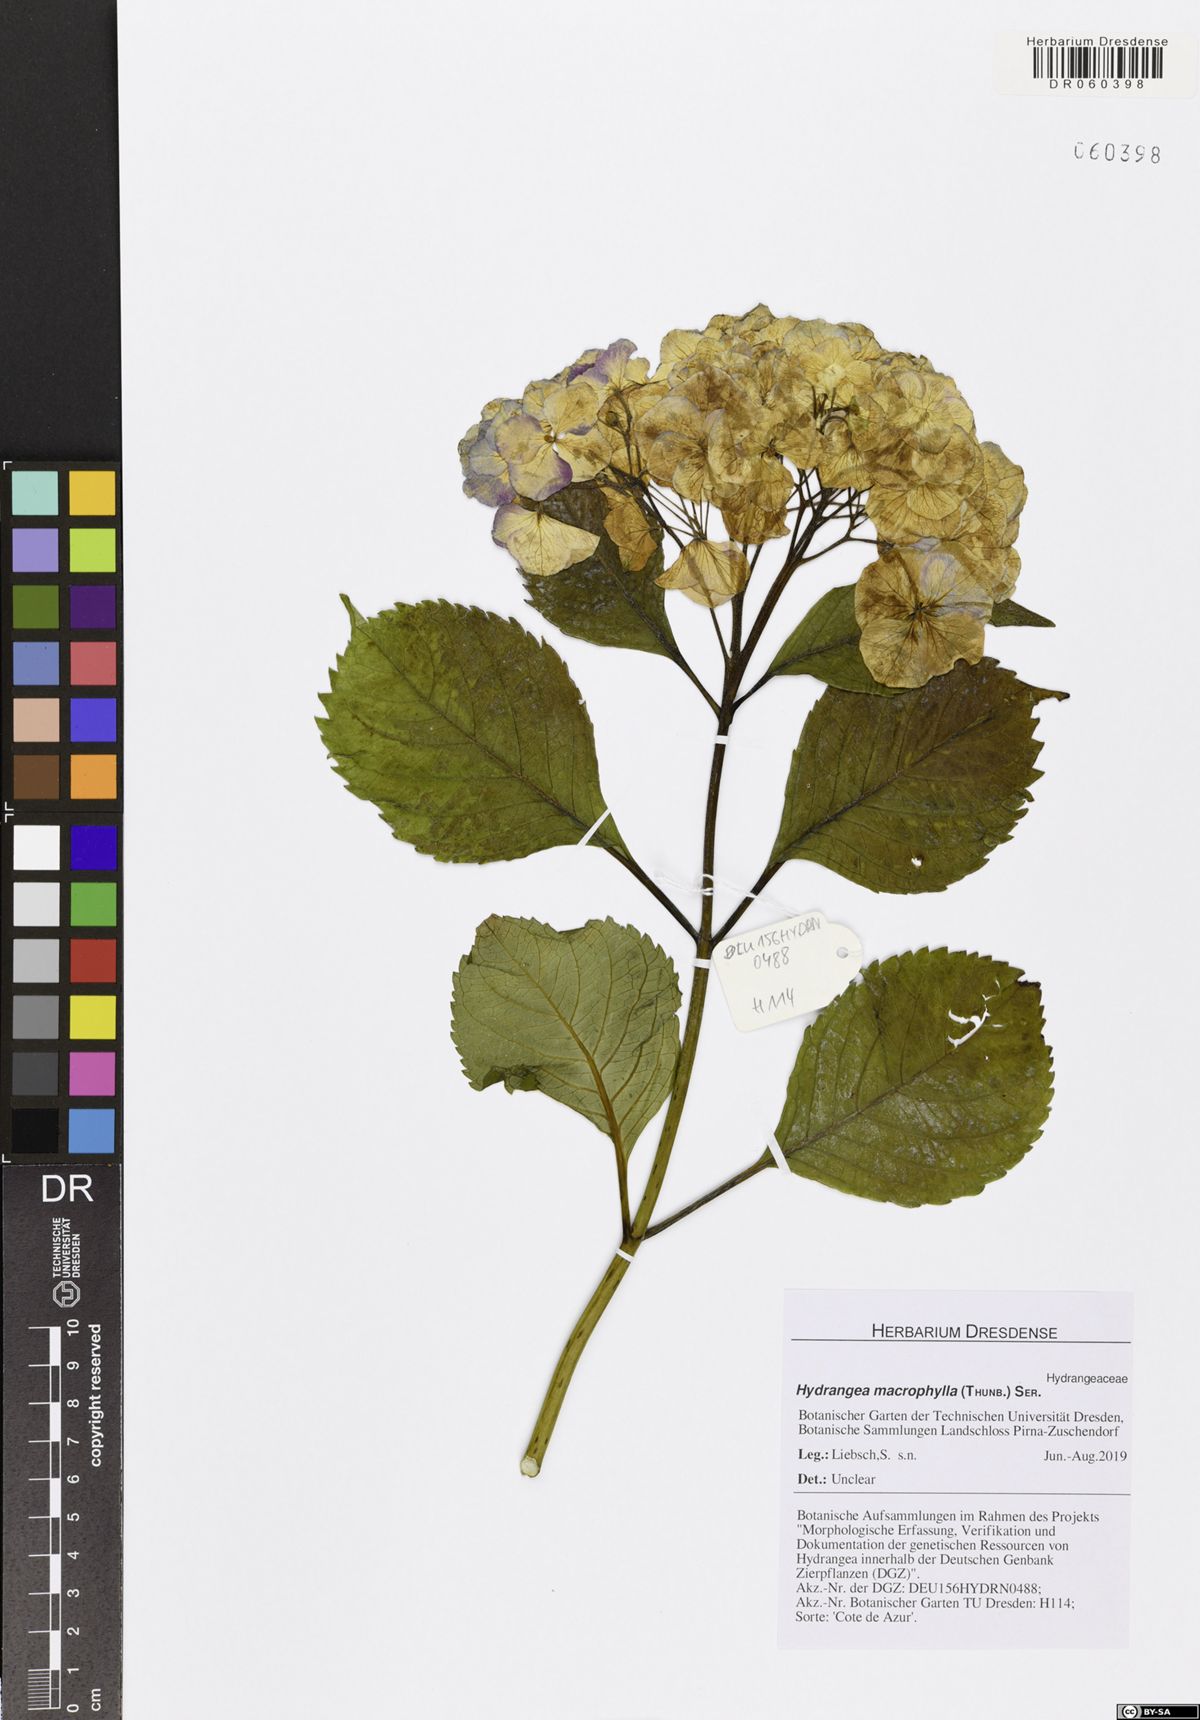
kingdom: Plantae
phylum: Tracheophyta
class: Magnoliopsida
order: Cornales
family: Hydrangeaceae
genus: Hydrangea
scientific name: Hydrangea macrophylla
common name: Hydrangea
